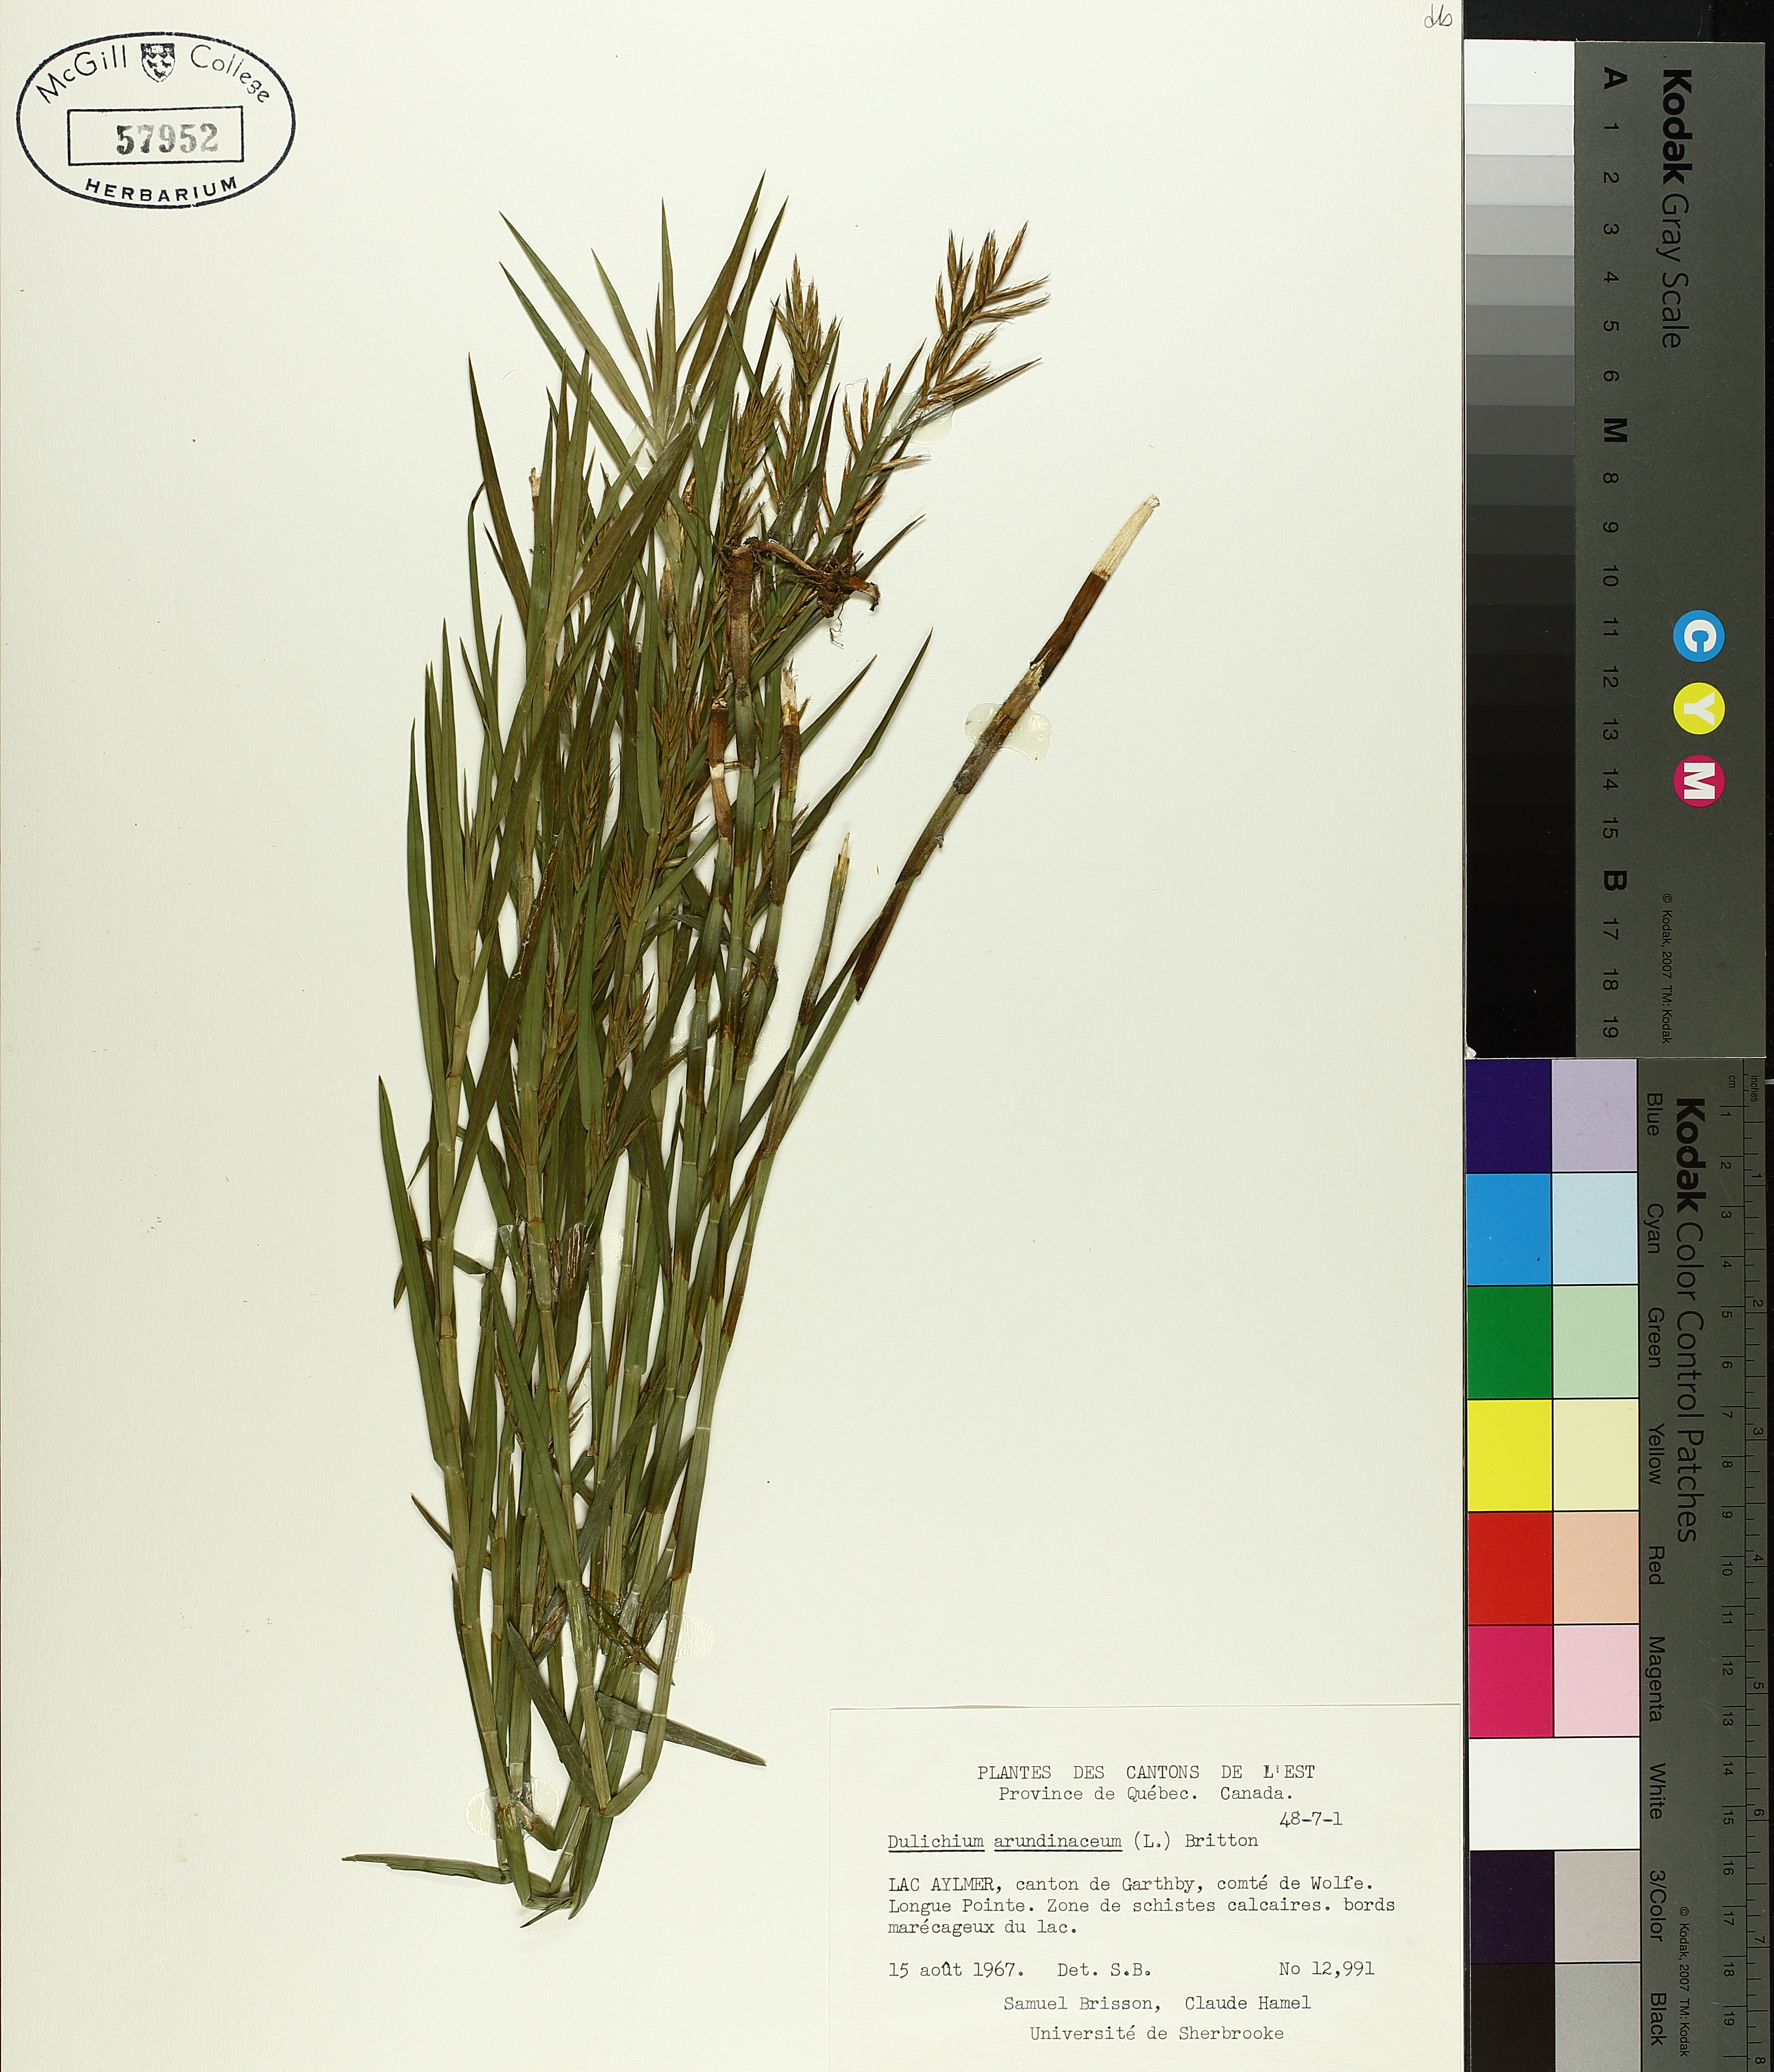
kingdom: Plantae
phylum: Tracheophyta
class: Liliopsida
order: Poales
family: Cyperaceae
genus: Dulichium
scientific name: Dulichium arundinaceum
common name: Three-way sedge
